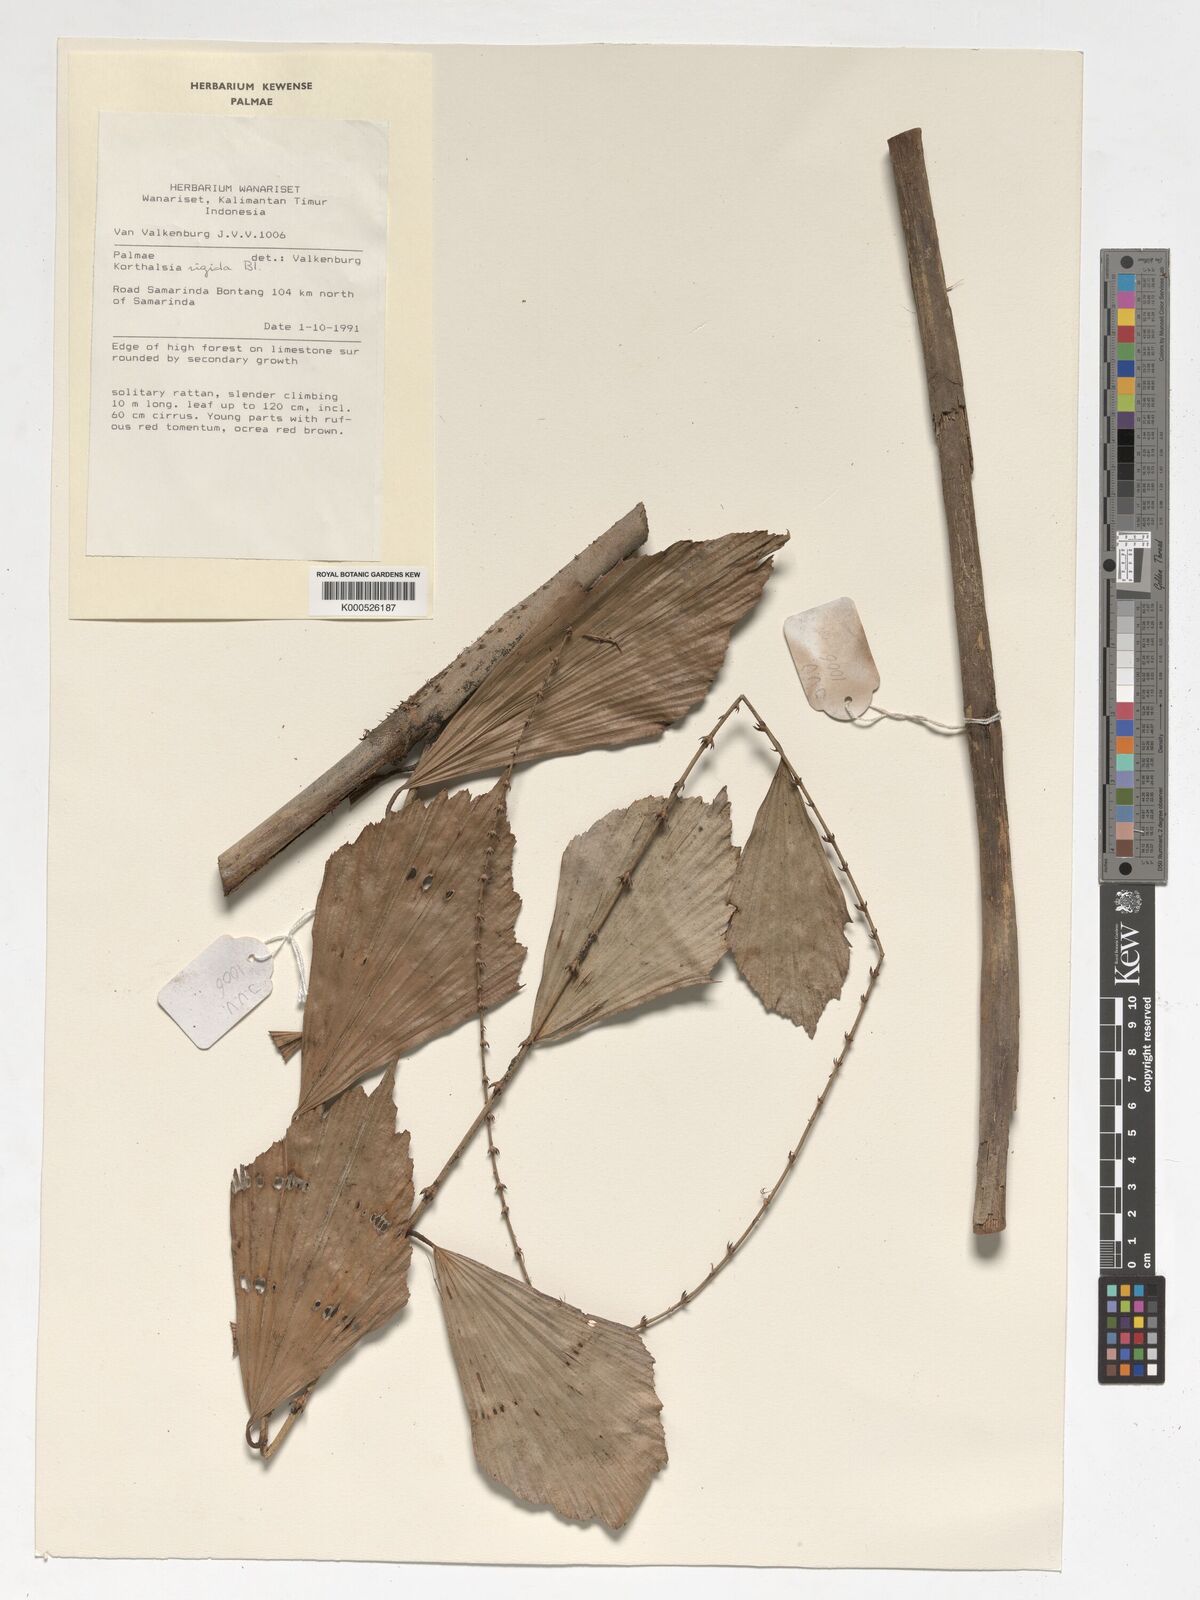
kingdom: Plantae
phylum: Tracheophyta
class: Liliopsida
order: Arecales
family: Arecaceae
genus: Korthalsia
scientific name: Korthalsia rigida
